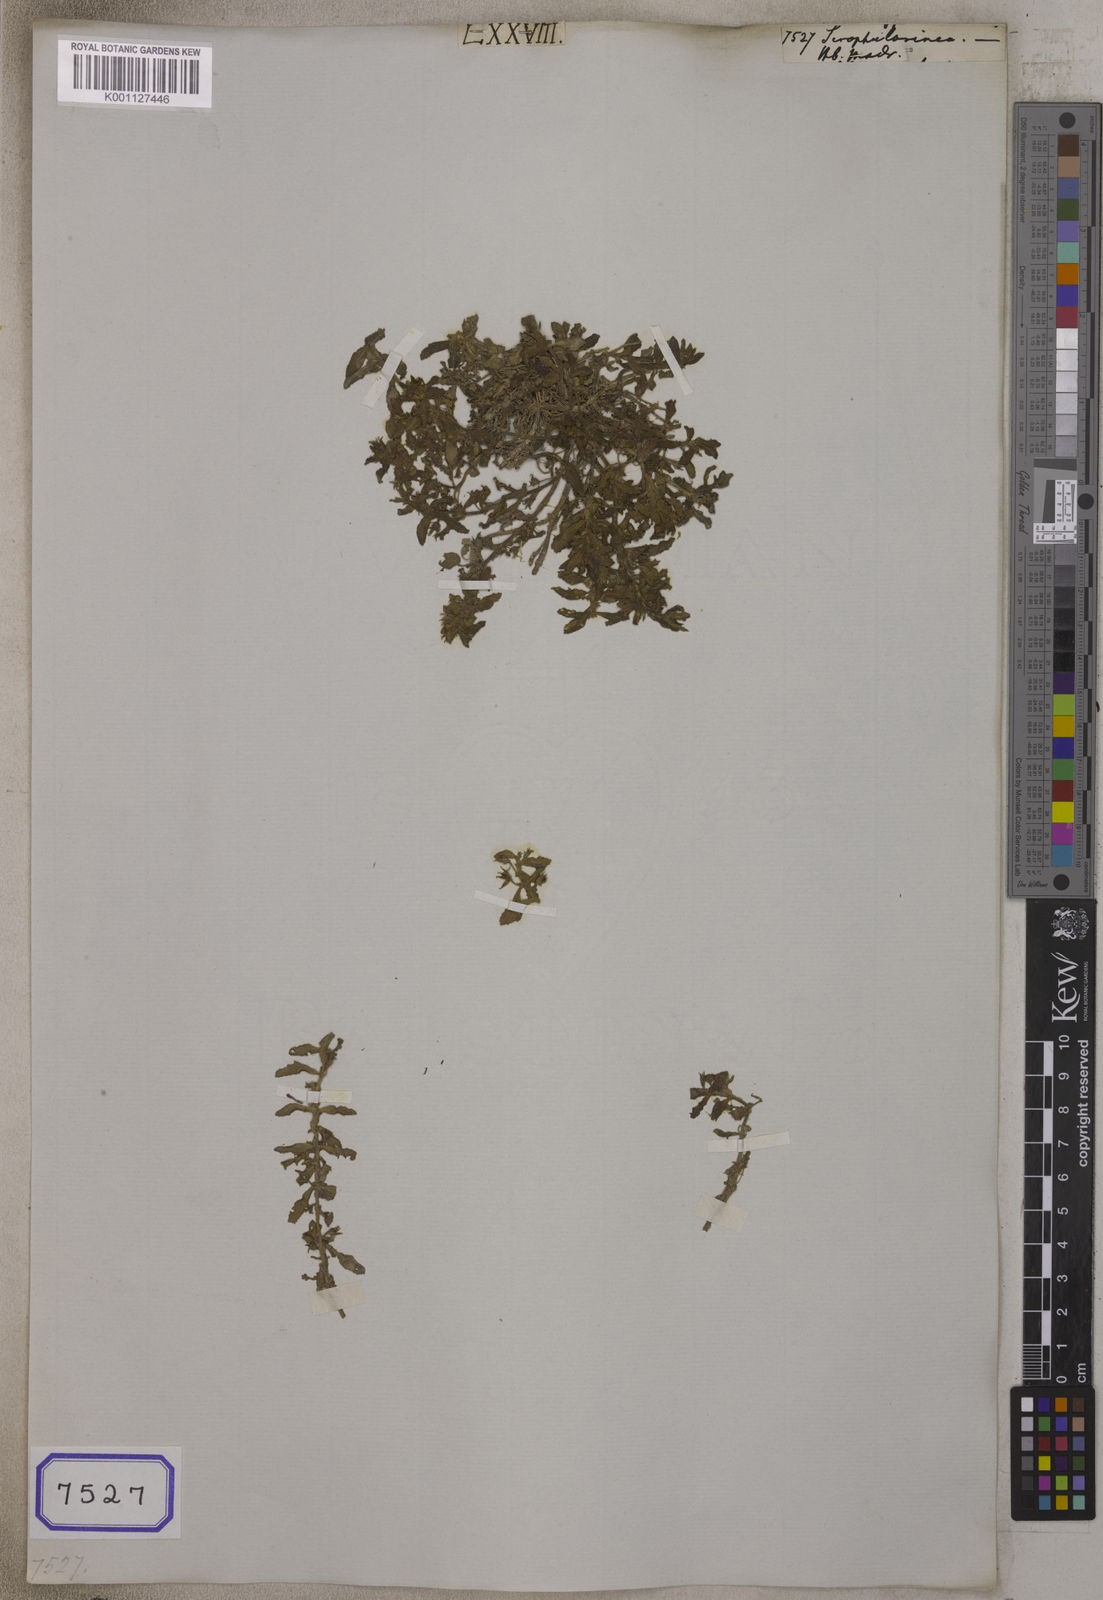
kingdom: Plantae
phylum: Tracheophyta
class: Magnoliopsida
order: Lamiales
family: Scrophulariaceae
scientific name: Scrophulariaceae
